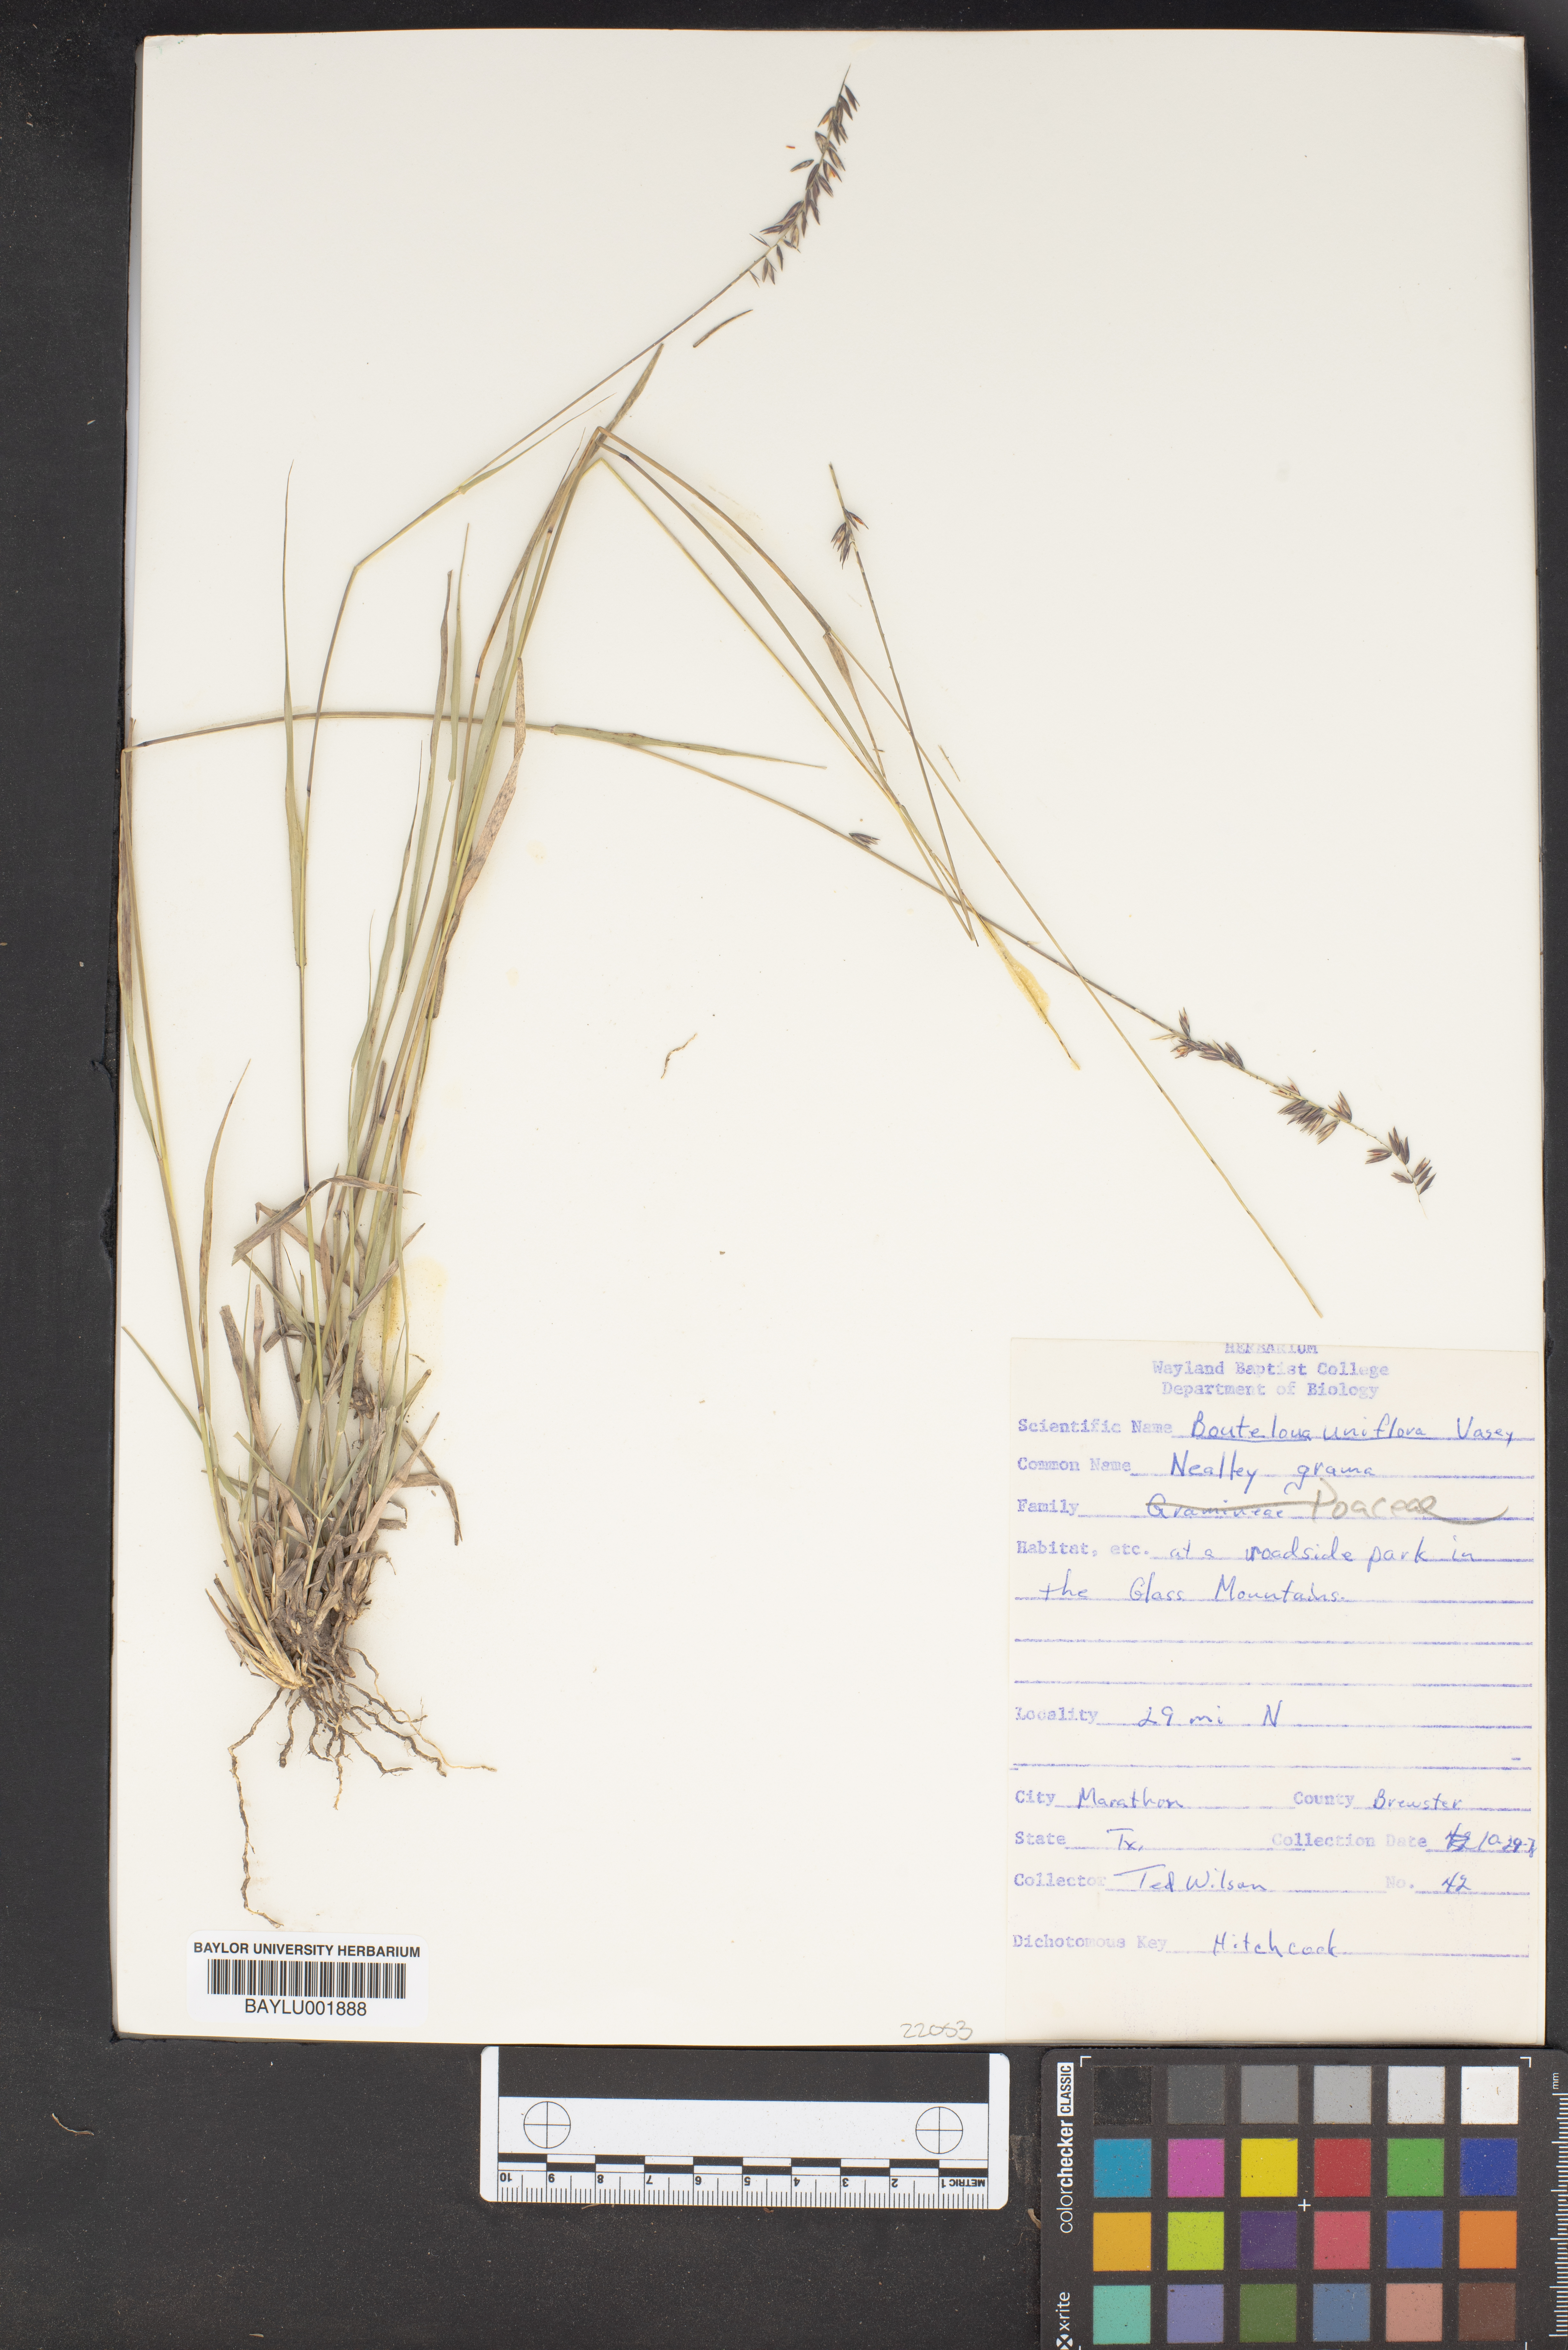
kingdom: Plantae
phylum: Tracheophyta
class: Liliopsida
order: Poales
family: Poaceae
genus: Bouteloua
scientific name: Bouteloua uniflora
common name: Neally's grama
